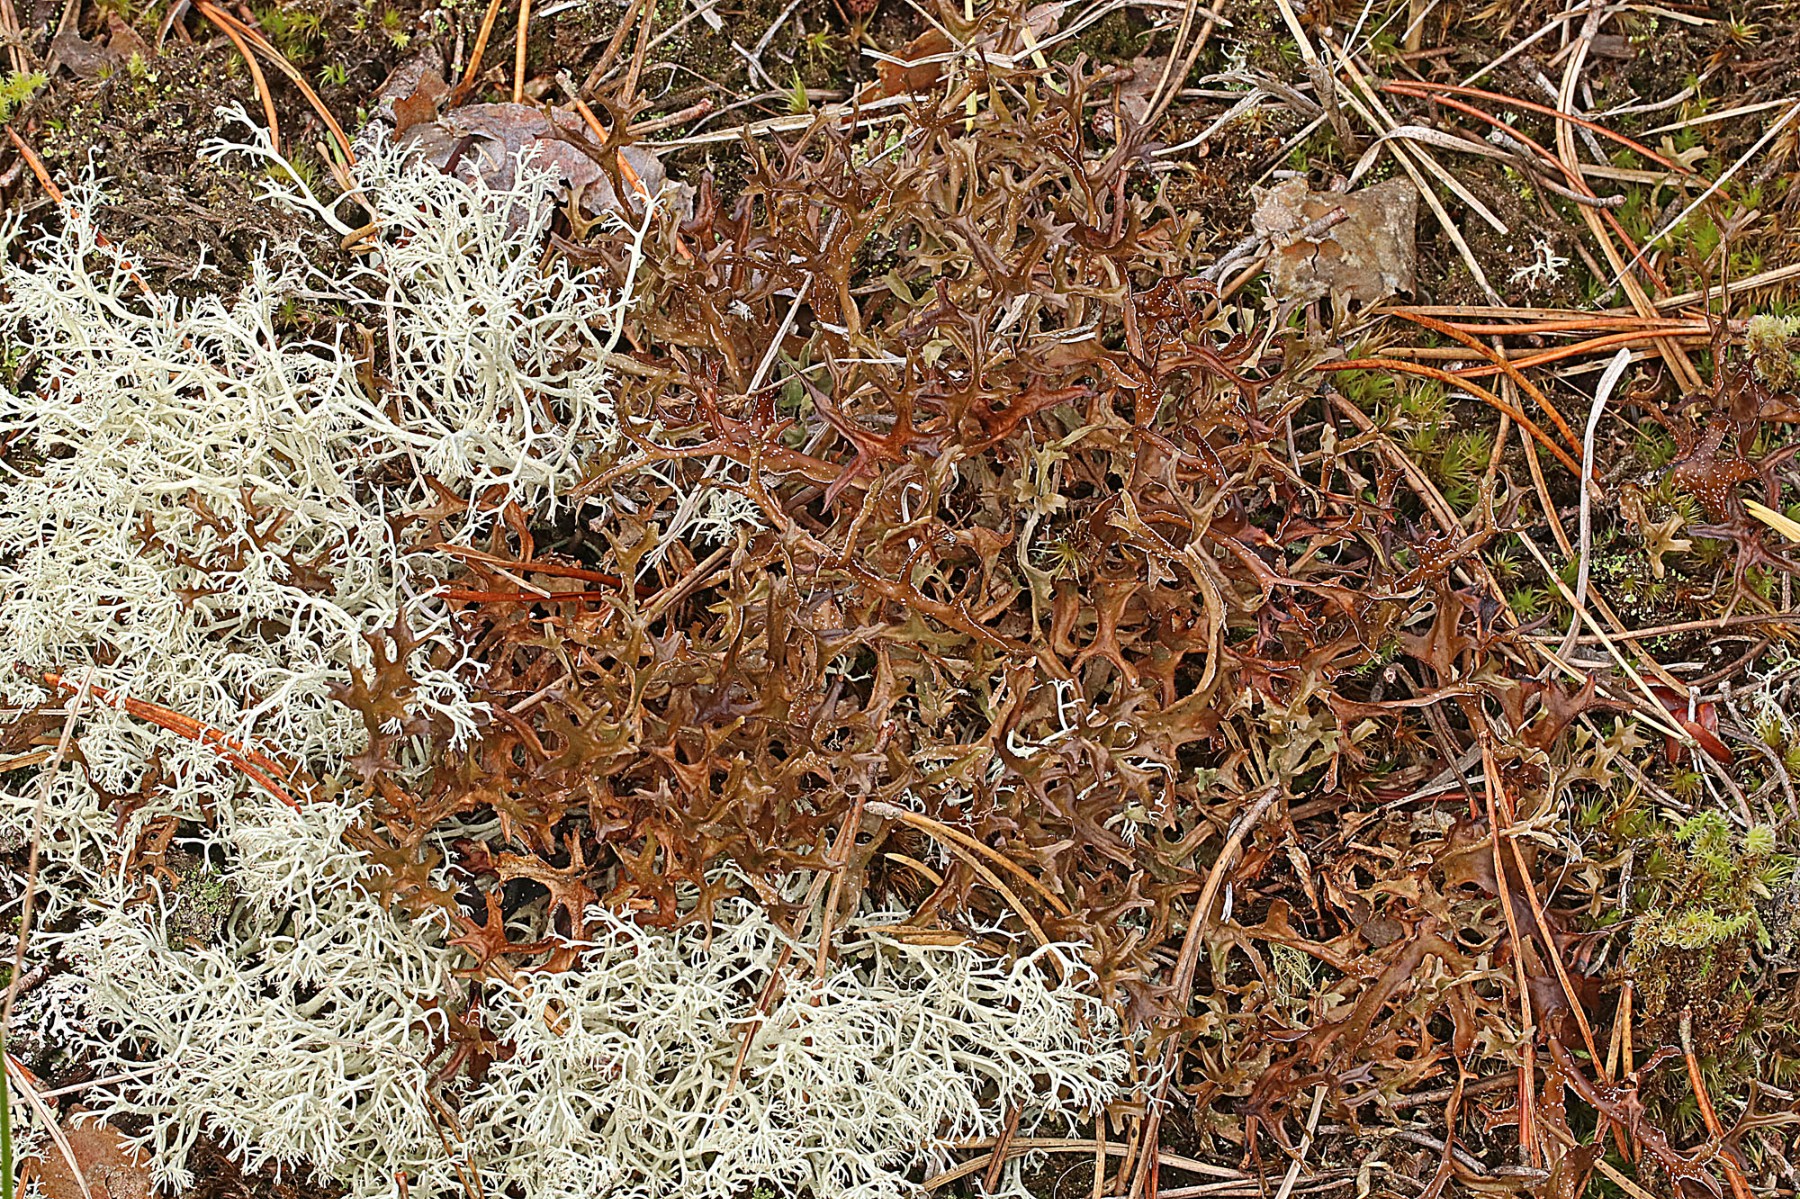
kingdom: Fungi
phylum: Ascomycota
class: Lecanoromycetes
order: Lecanorales
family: Parmeliaceae
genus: Cetraria
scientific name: Cetraria islandica
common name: islandsk kruslav
